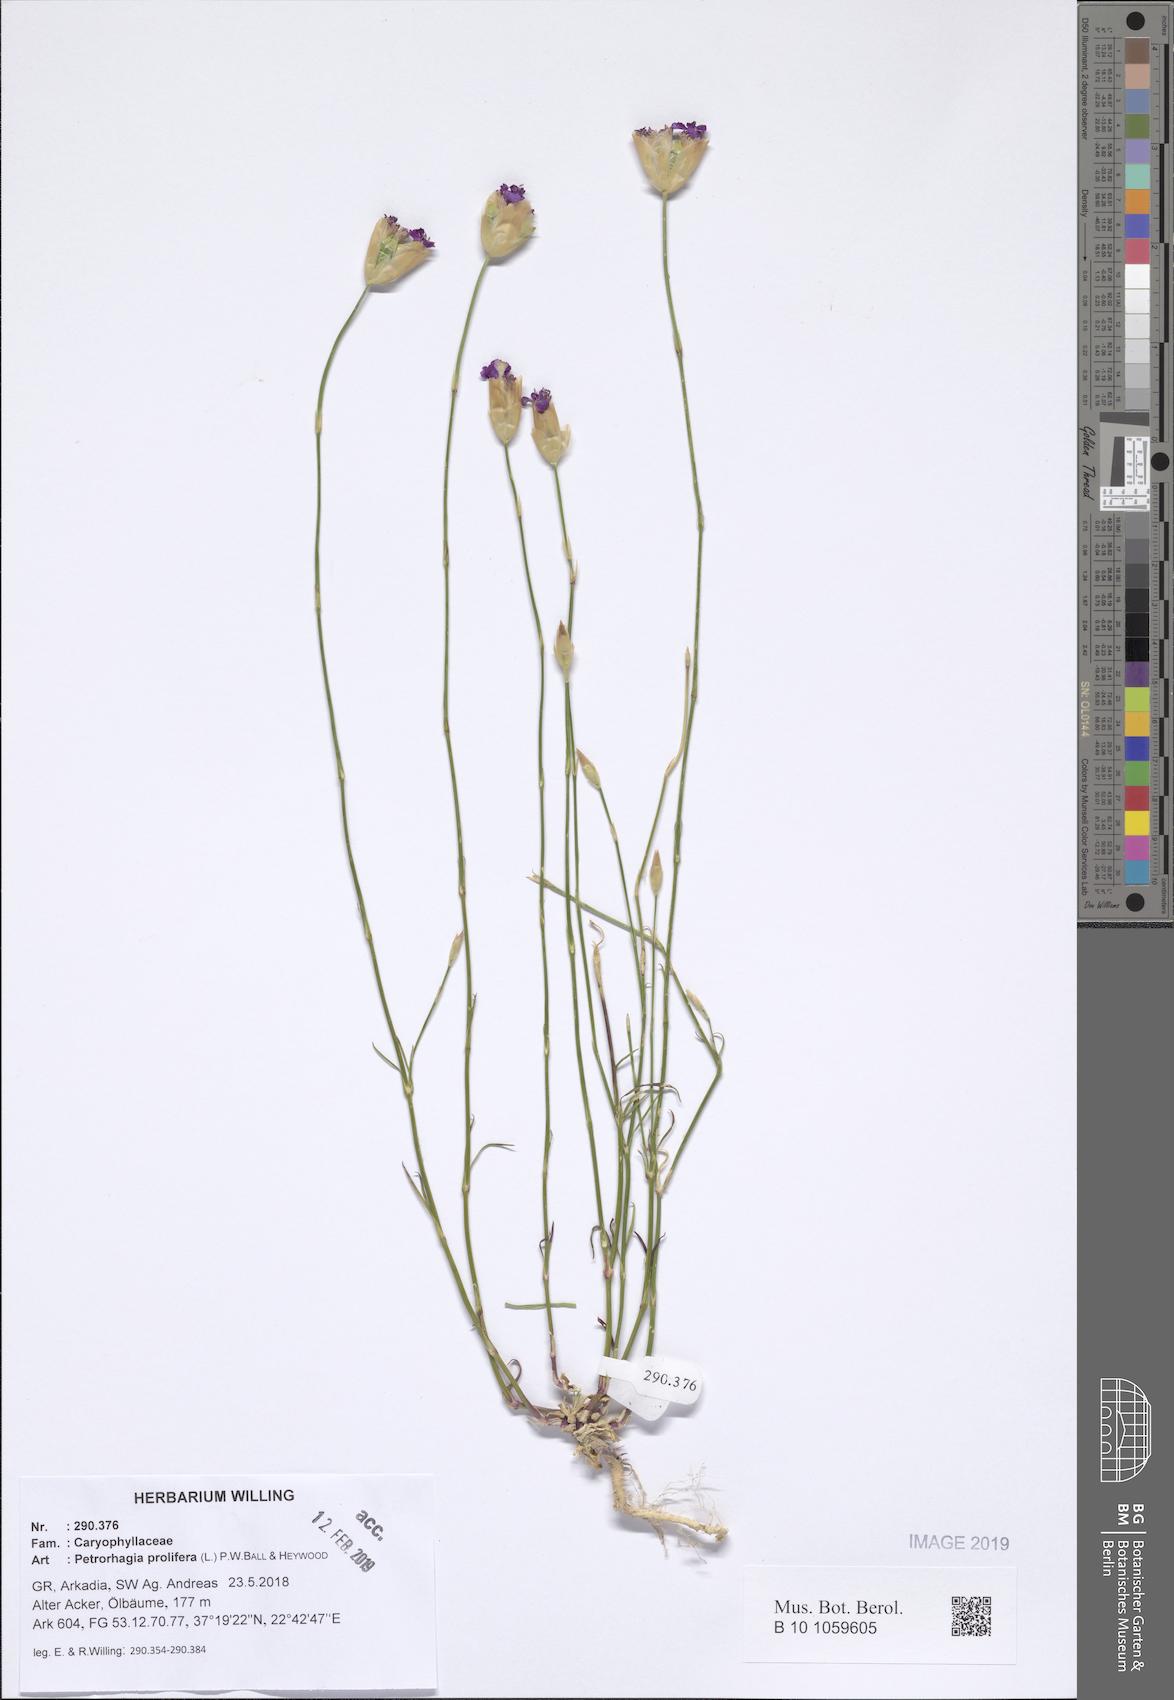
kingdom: Plantae
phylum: Tracheophyta
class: Magnoliopsida
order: Caryophyllales
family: Caryophyllaceae
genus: Petrorhagia
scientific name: Petrorhagia prolifera
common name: Proliferous pink
